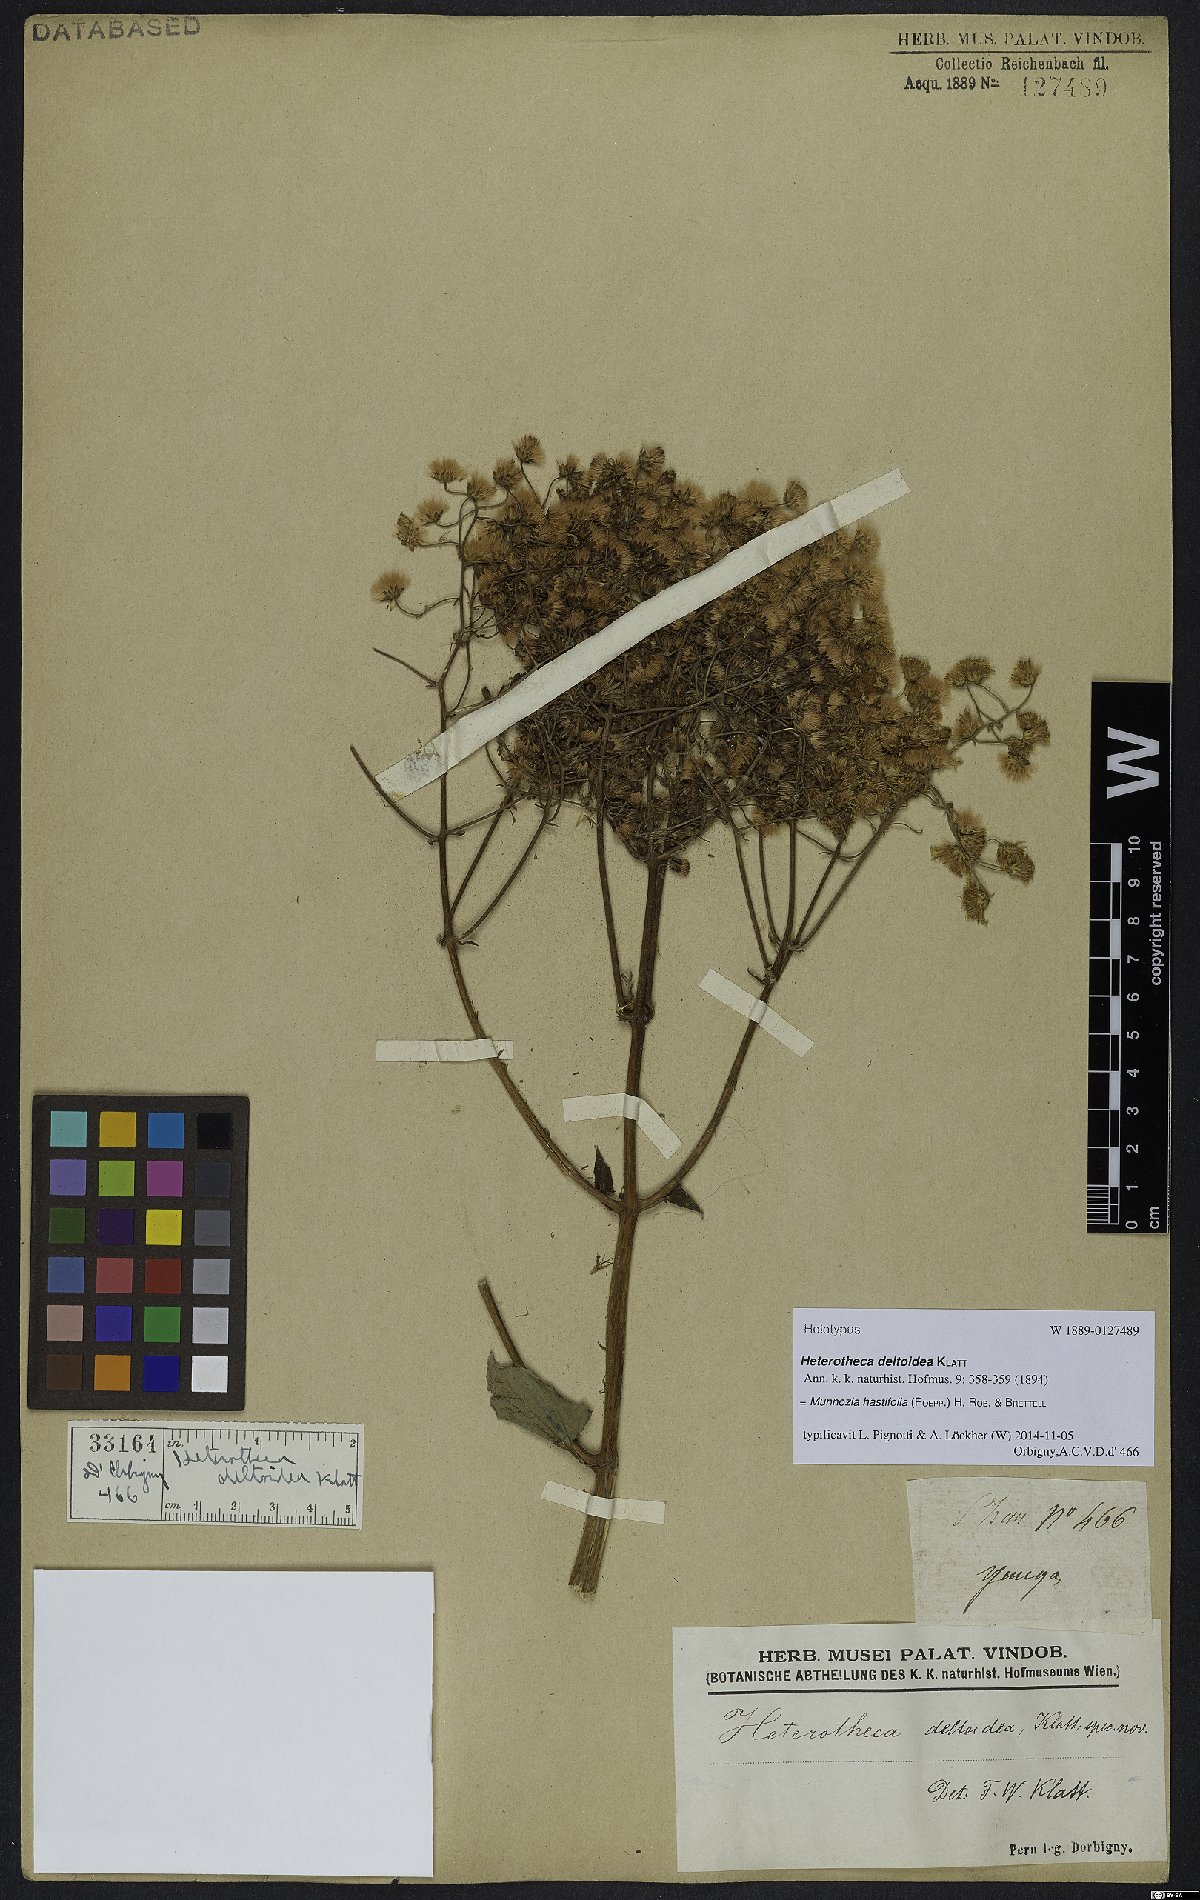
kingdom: Plantae
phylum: Tracheophyta
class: Magnoliopsida
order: Asterales
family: Asteraceae
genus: Munnozia
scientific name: Munnozia hastifolia
